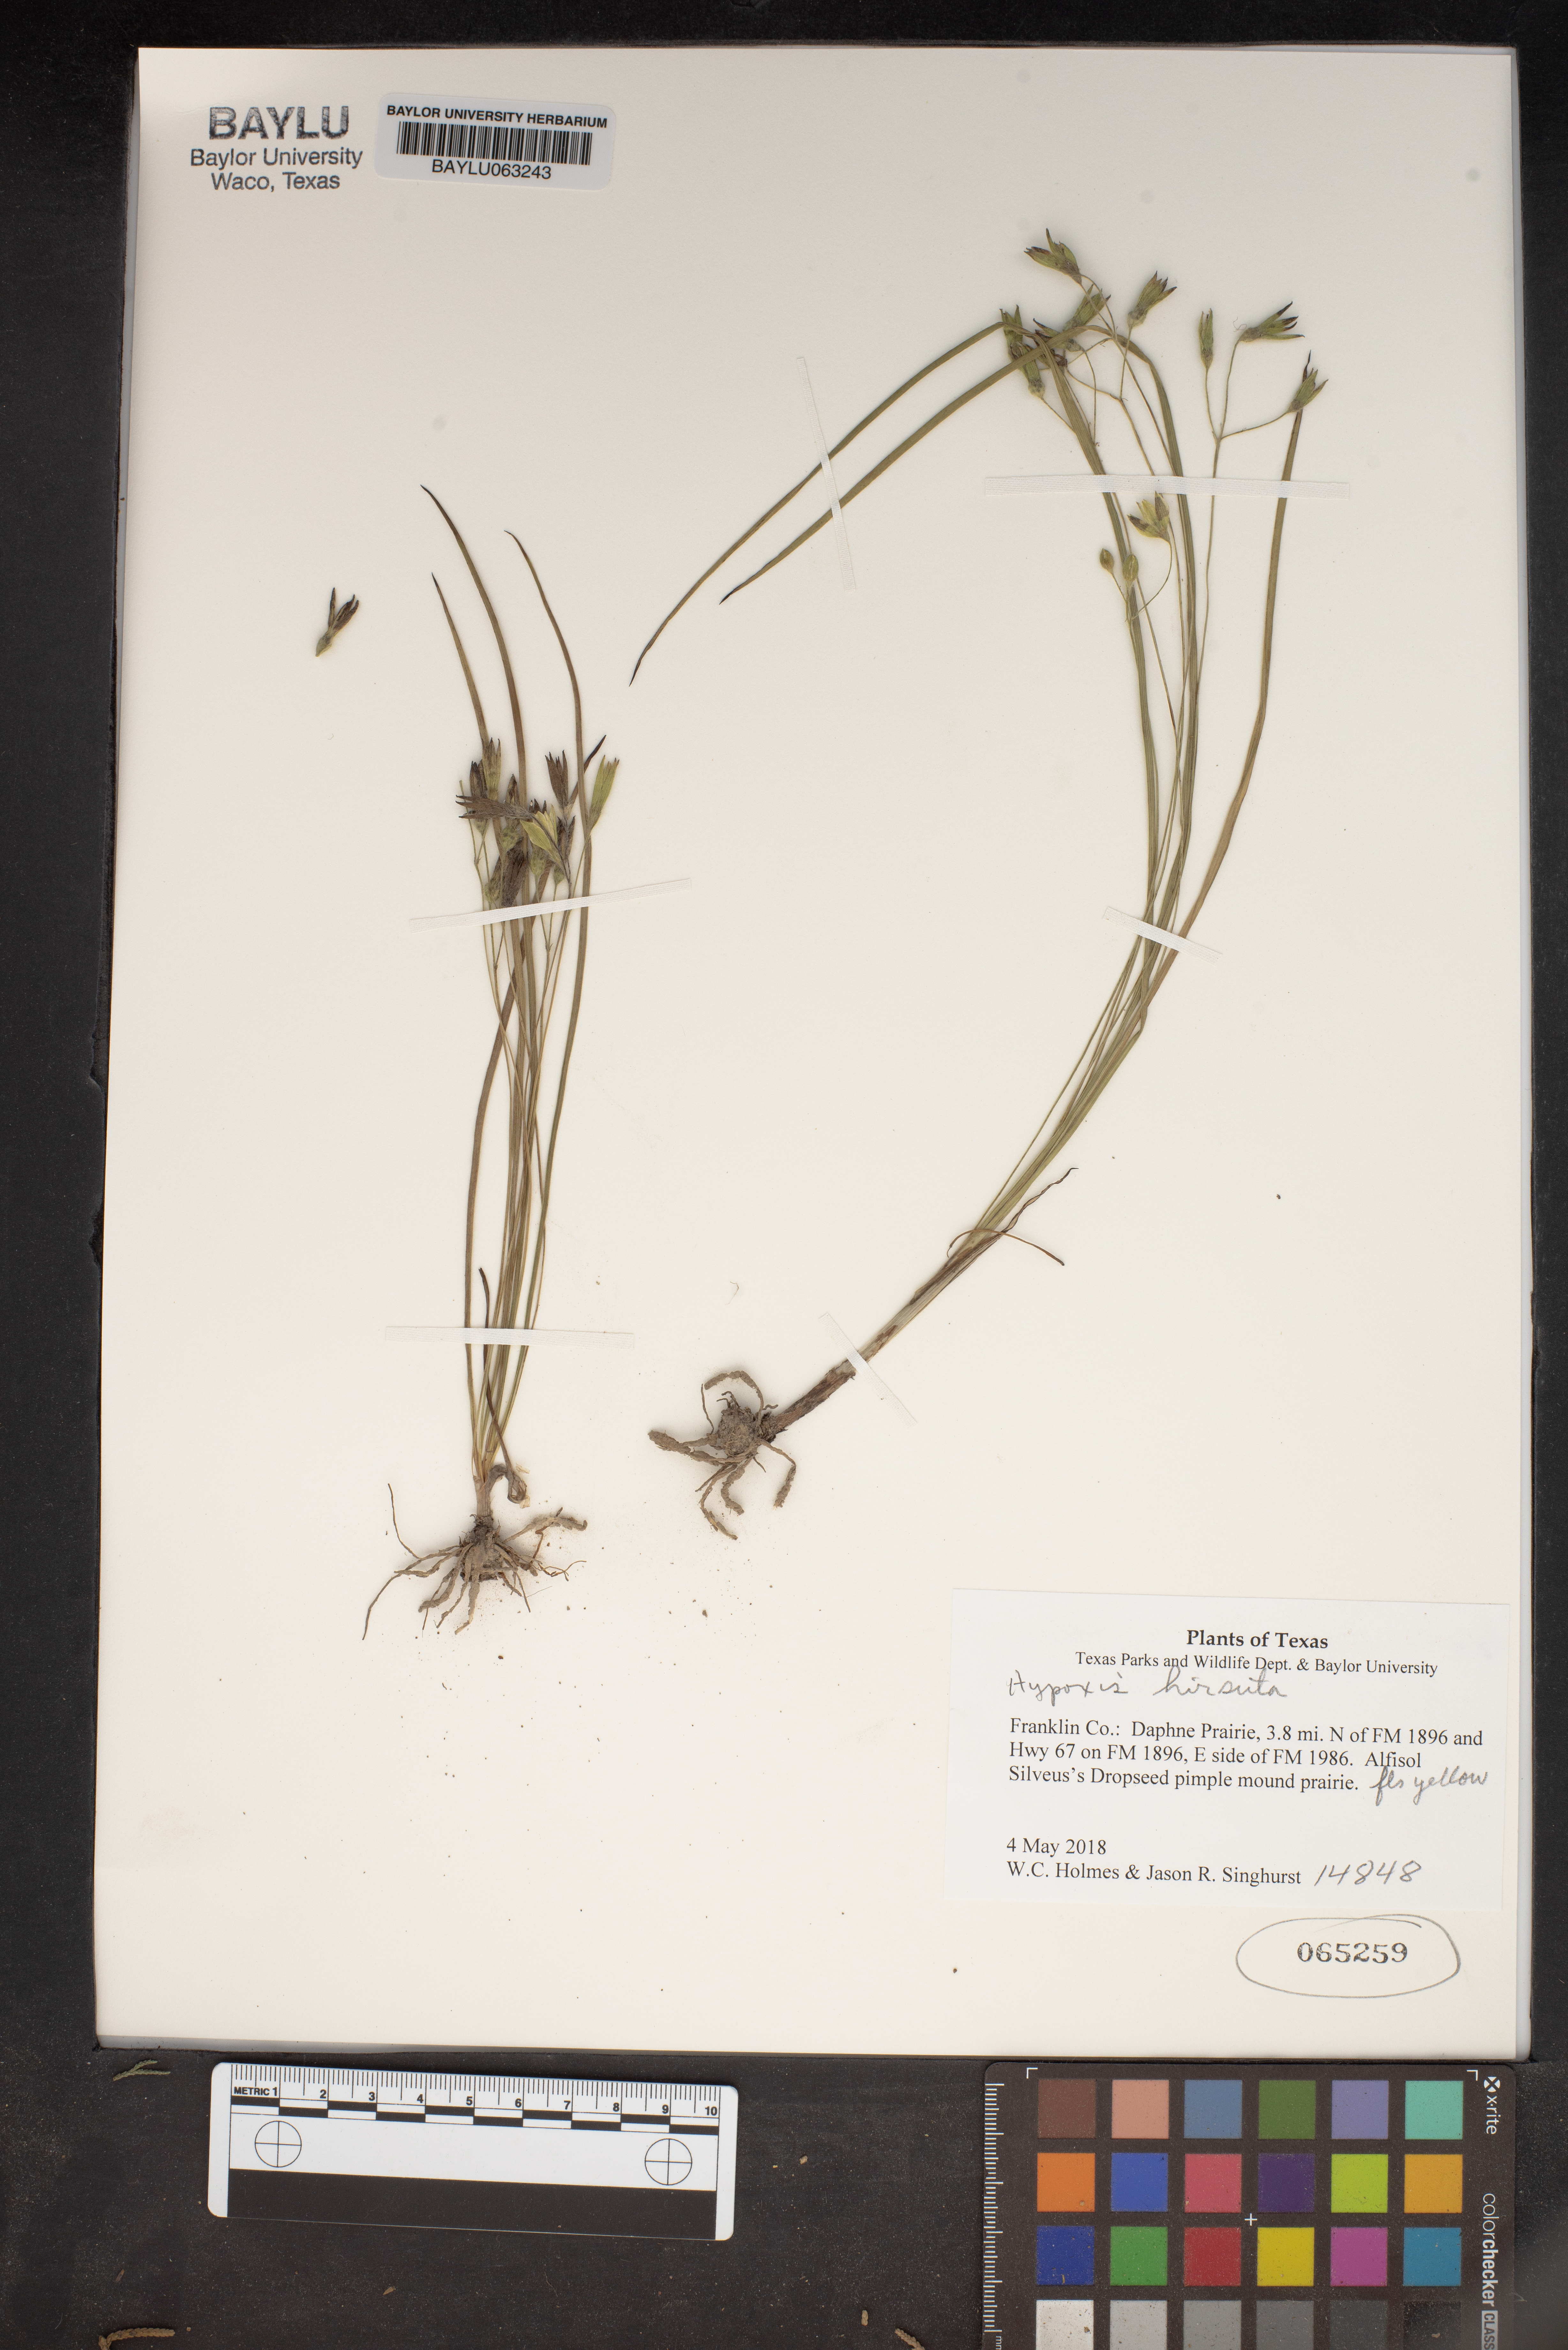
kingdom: Plantae
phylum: Tracheophyta
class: Liliopsida
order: Asparagales
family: Hypoxidaceae
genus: Hypoxis
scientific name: Hypoxis hirsuta
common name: Common goldstar
